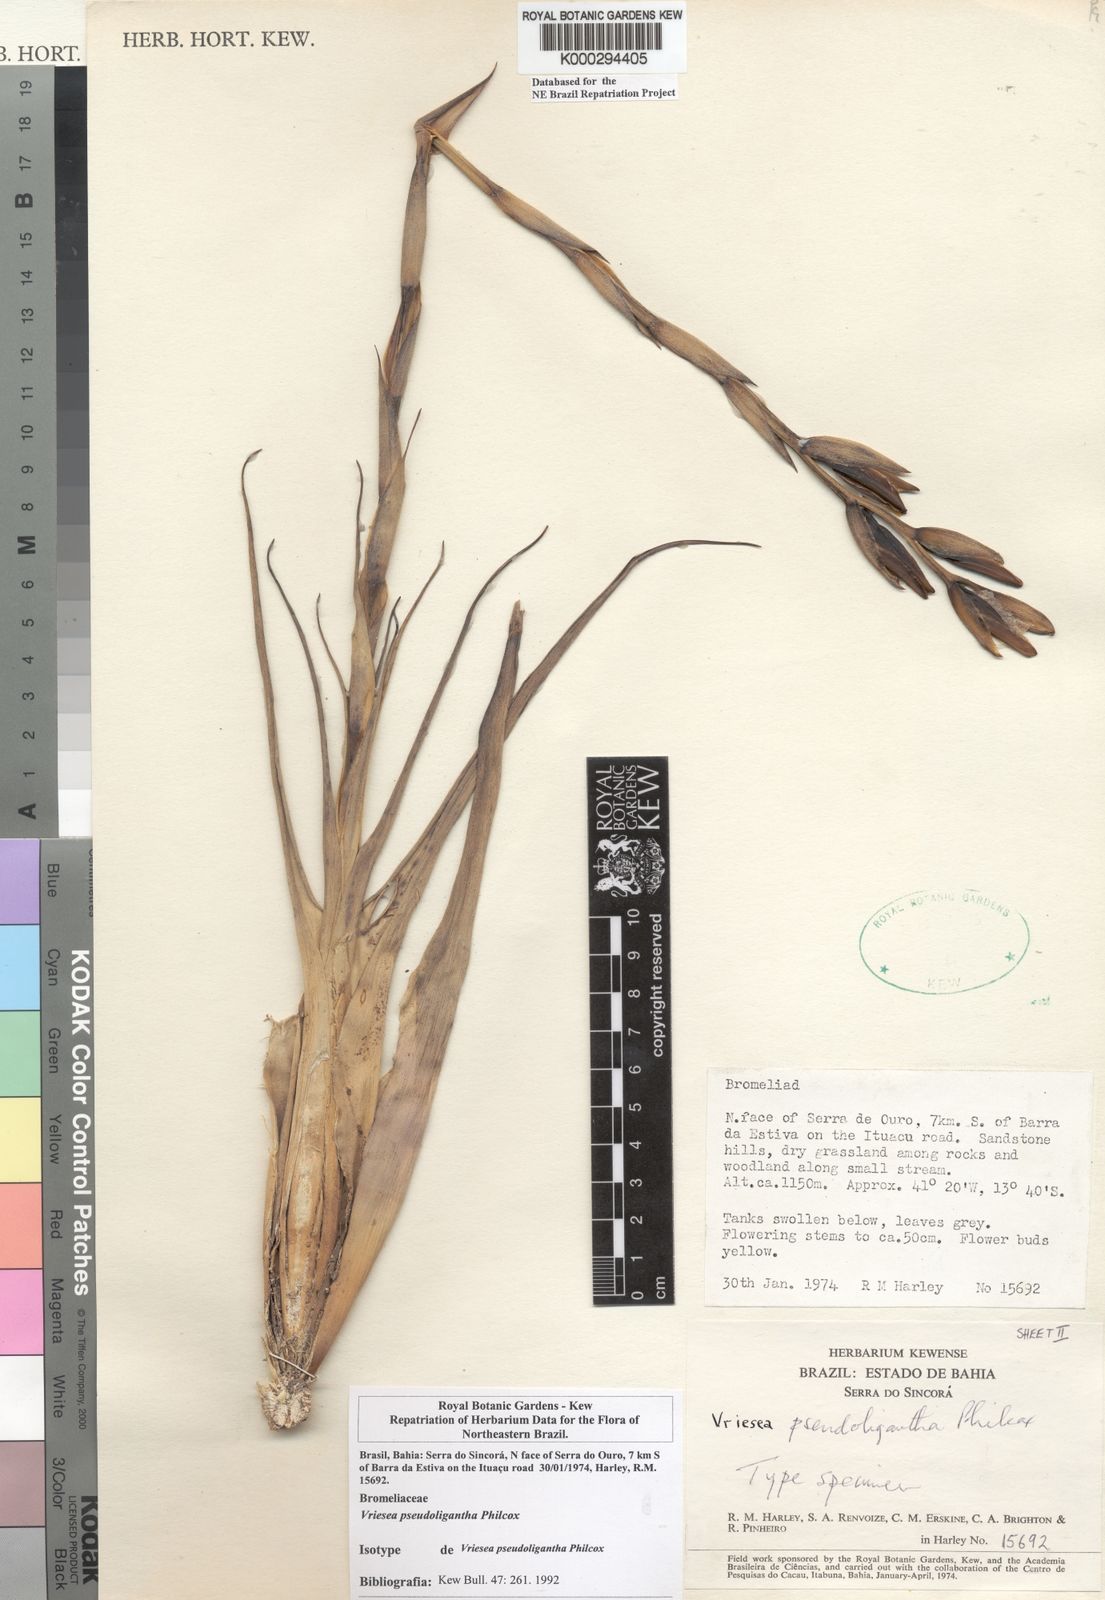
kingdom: Plantae
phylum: Tracheophyta
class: Liliopsida
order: Poales
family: Bromeliaceae
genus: Vriesea
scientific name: Vriesea pseudoligantha
